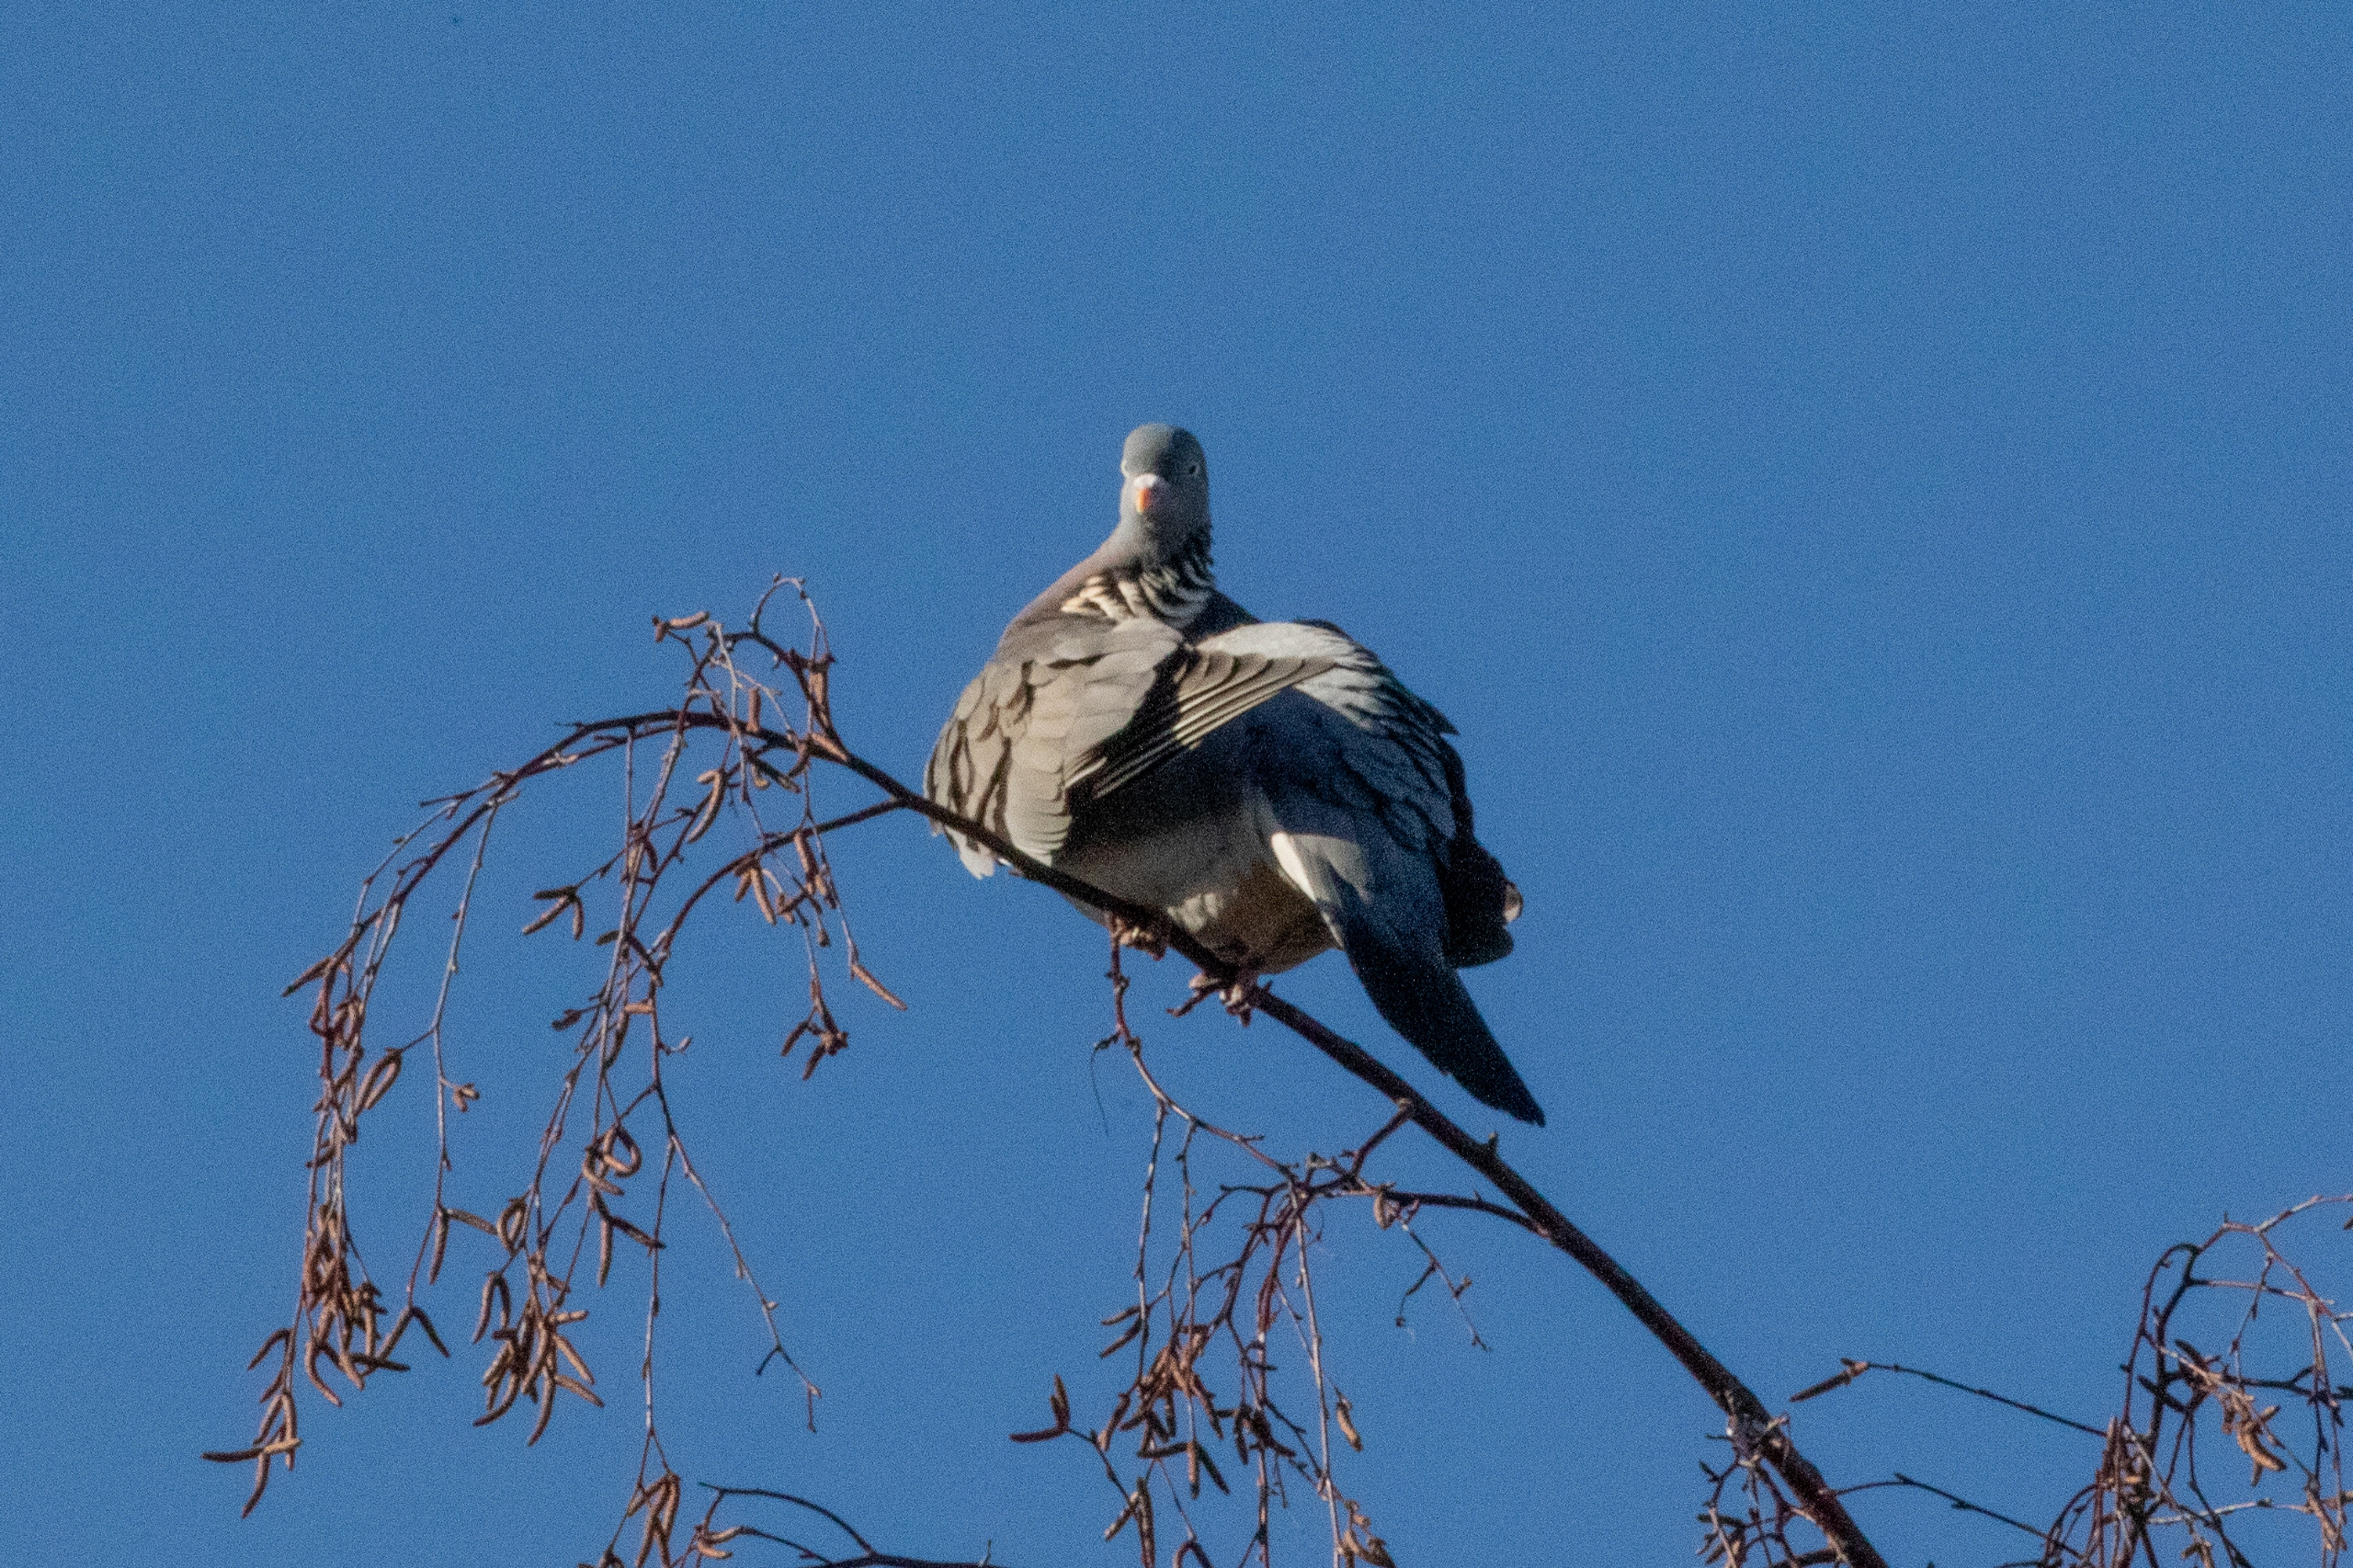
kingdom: Animalia
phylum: Chordata
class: Aves
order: Columbiformes
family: Columbidae
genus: Columba
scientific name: Columba palumbus
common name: Ringdue
